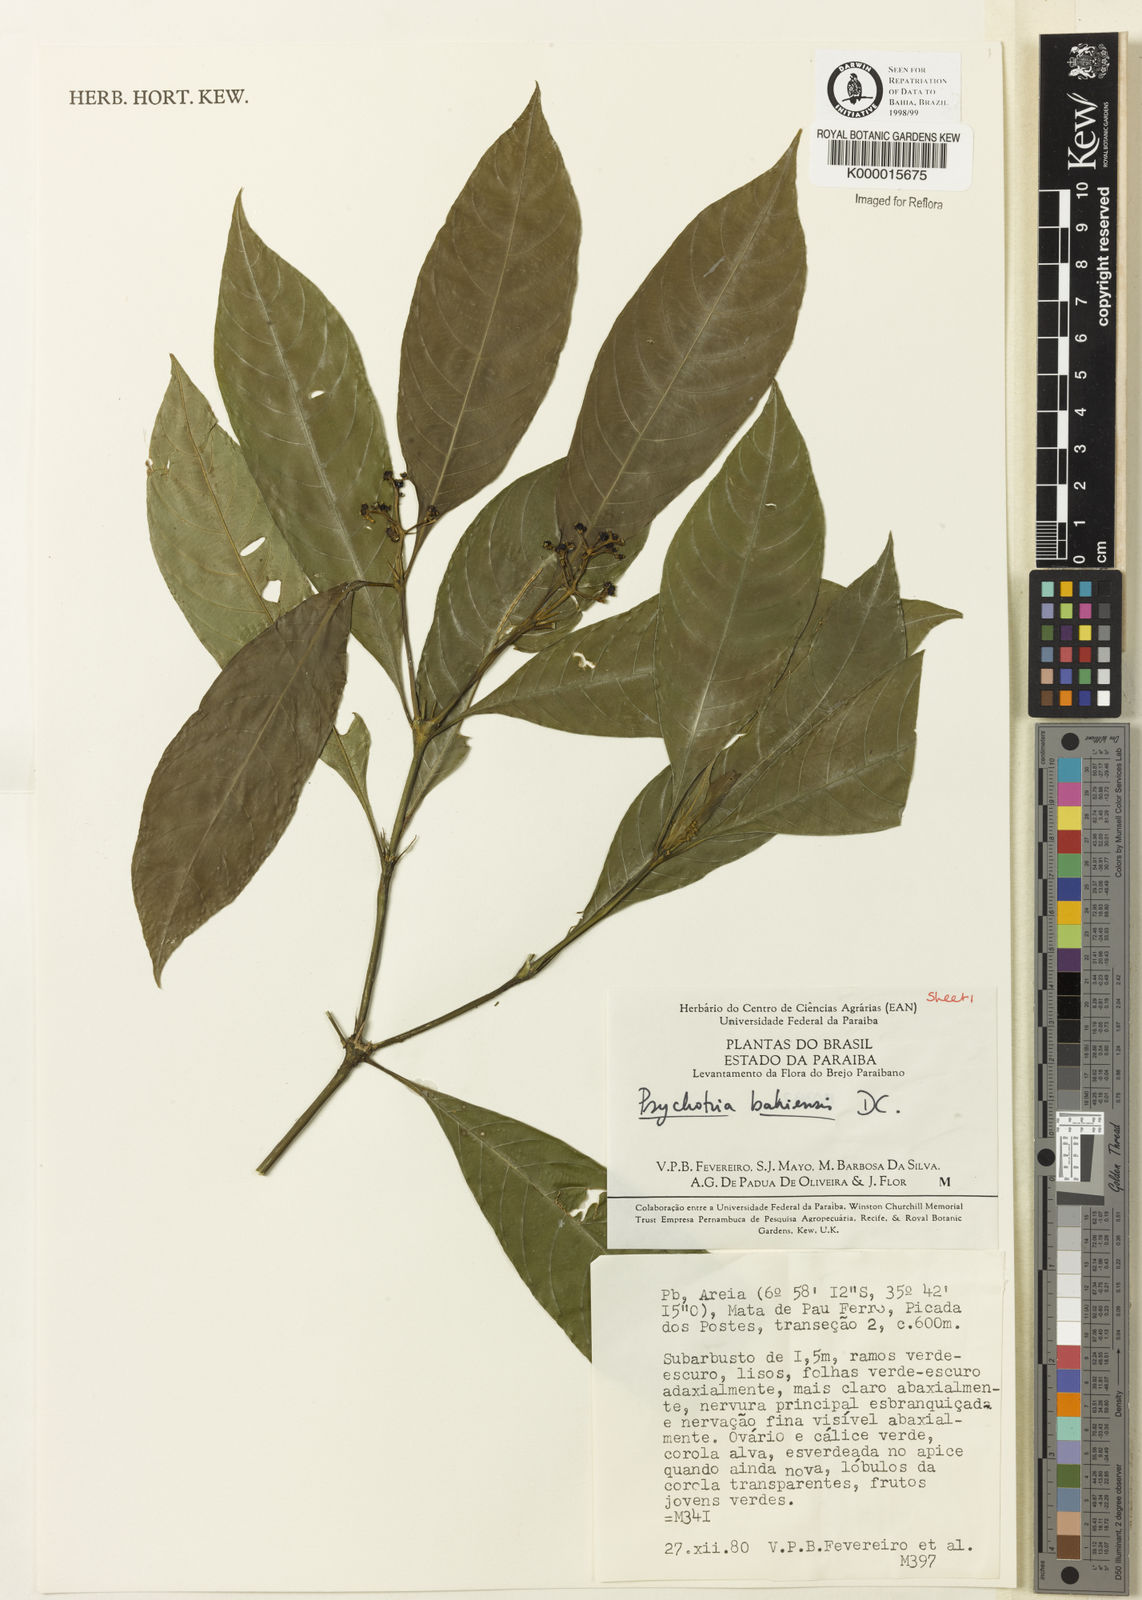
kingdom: Plantae
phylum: Tracheophyta
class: Magnoliopsida
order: Gentianales
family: Rubiaceae
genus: Psychotria
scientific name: Psychotria bahiensis
